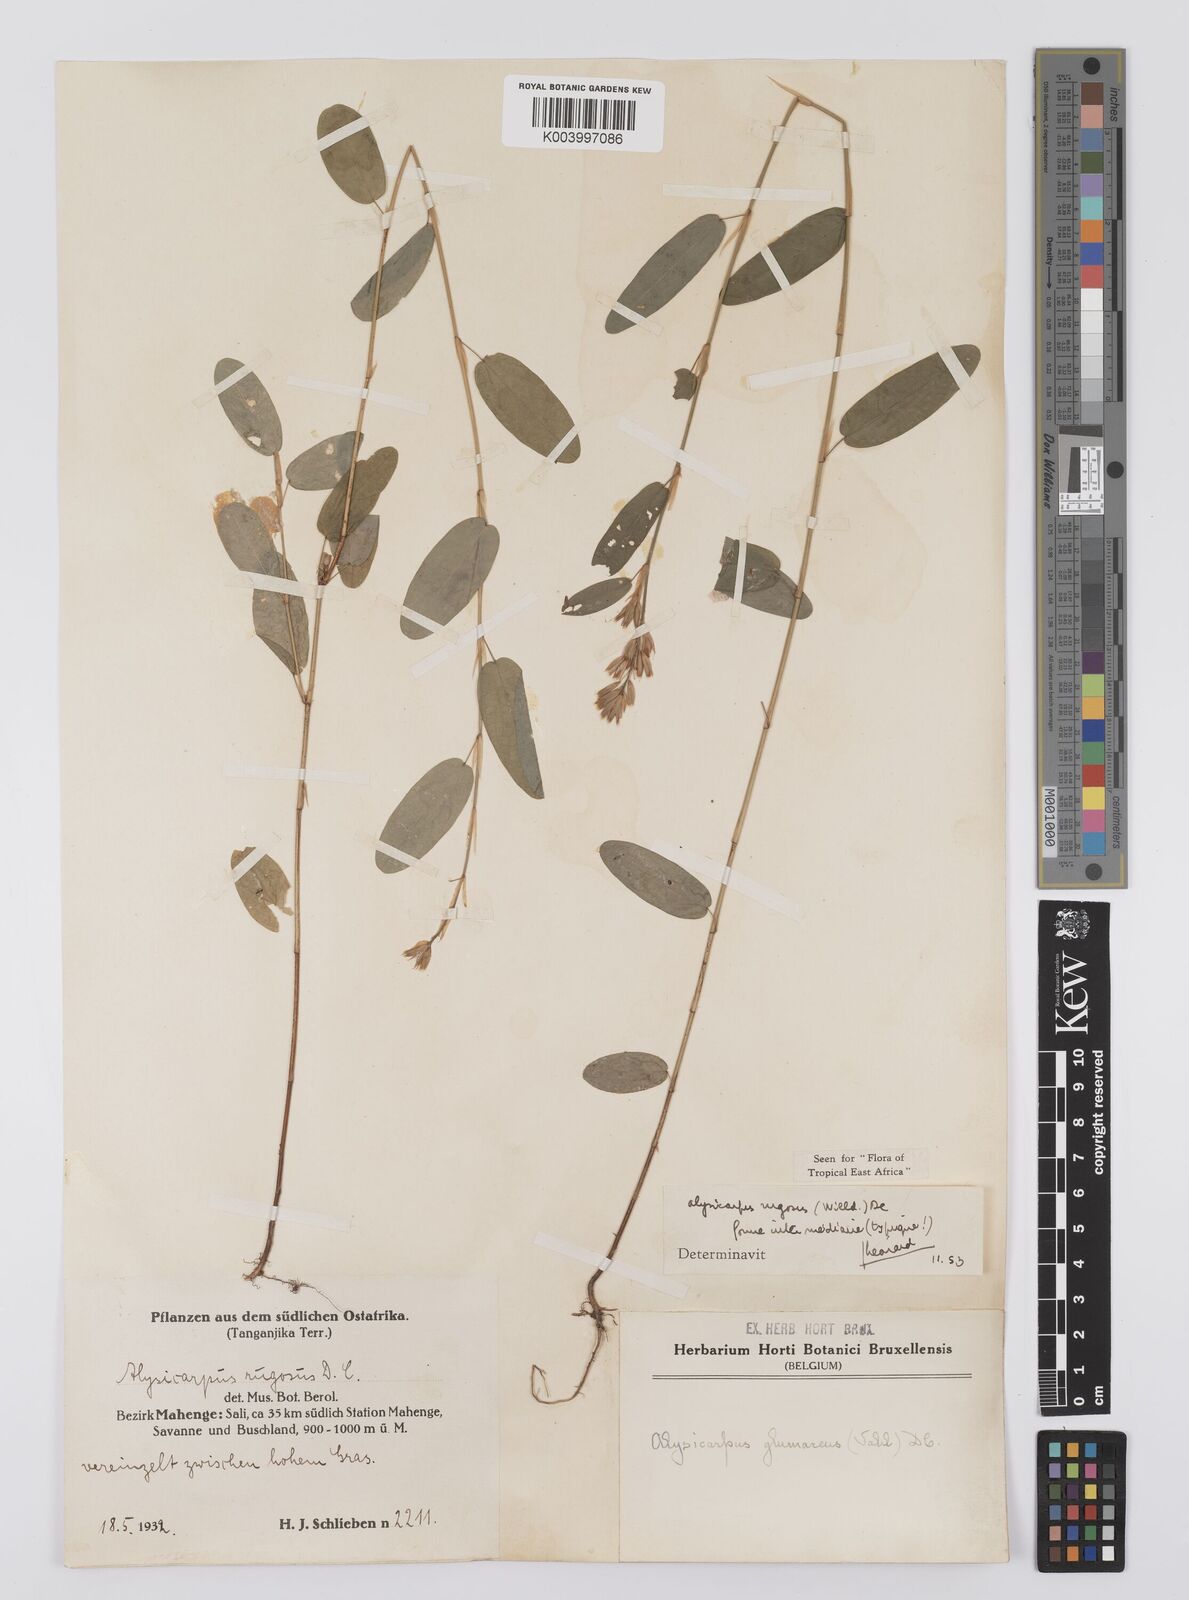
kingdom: Plantae
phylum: Tracheophyta
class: Magnoliopsida
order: Fabales
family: Fabaceae
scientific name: Fabaceae
